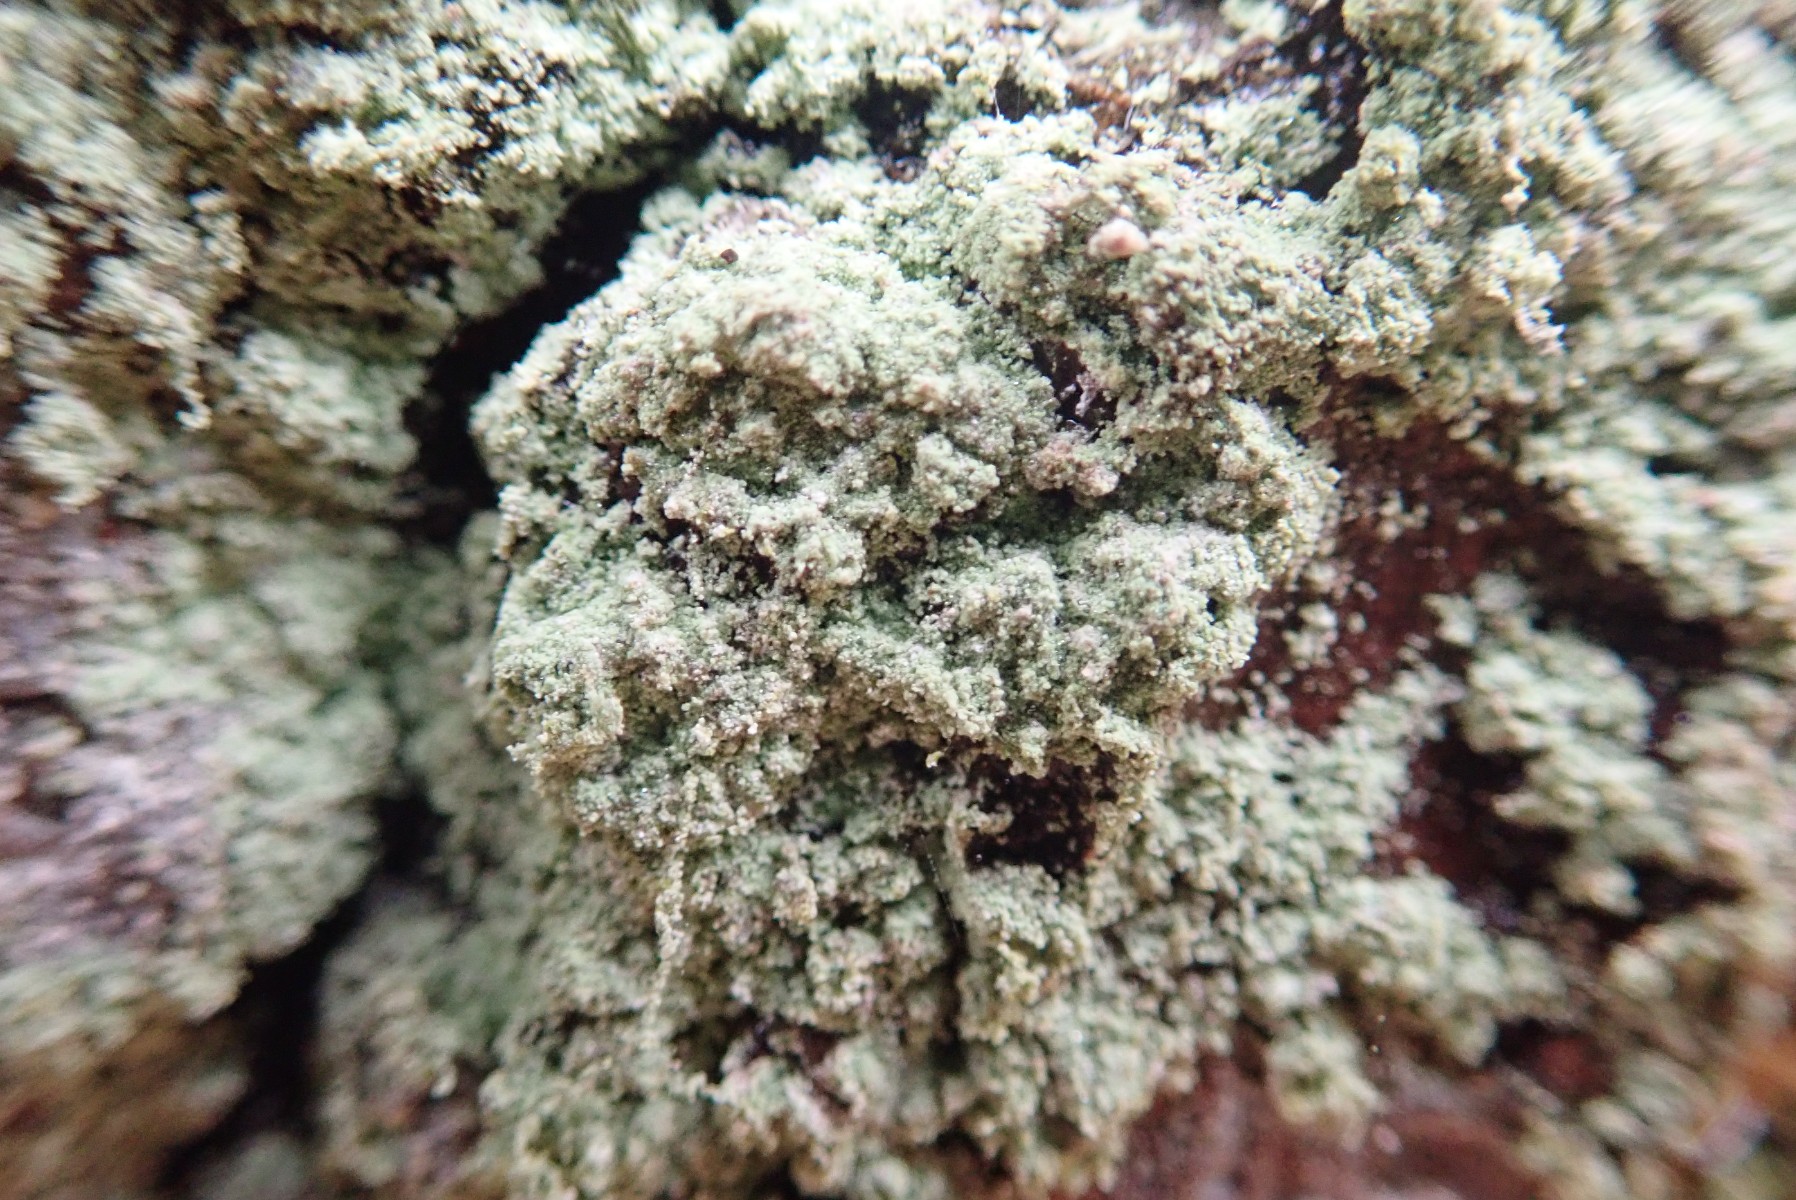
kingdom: Fungi
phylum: Ascomycota
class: Lecanoromycetes
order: Lecanorales
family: Stereocaulaceae
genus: Lepraria
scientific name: Lepraria
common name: støvlav
